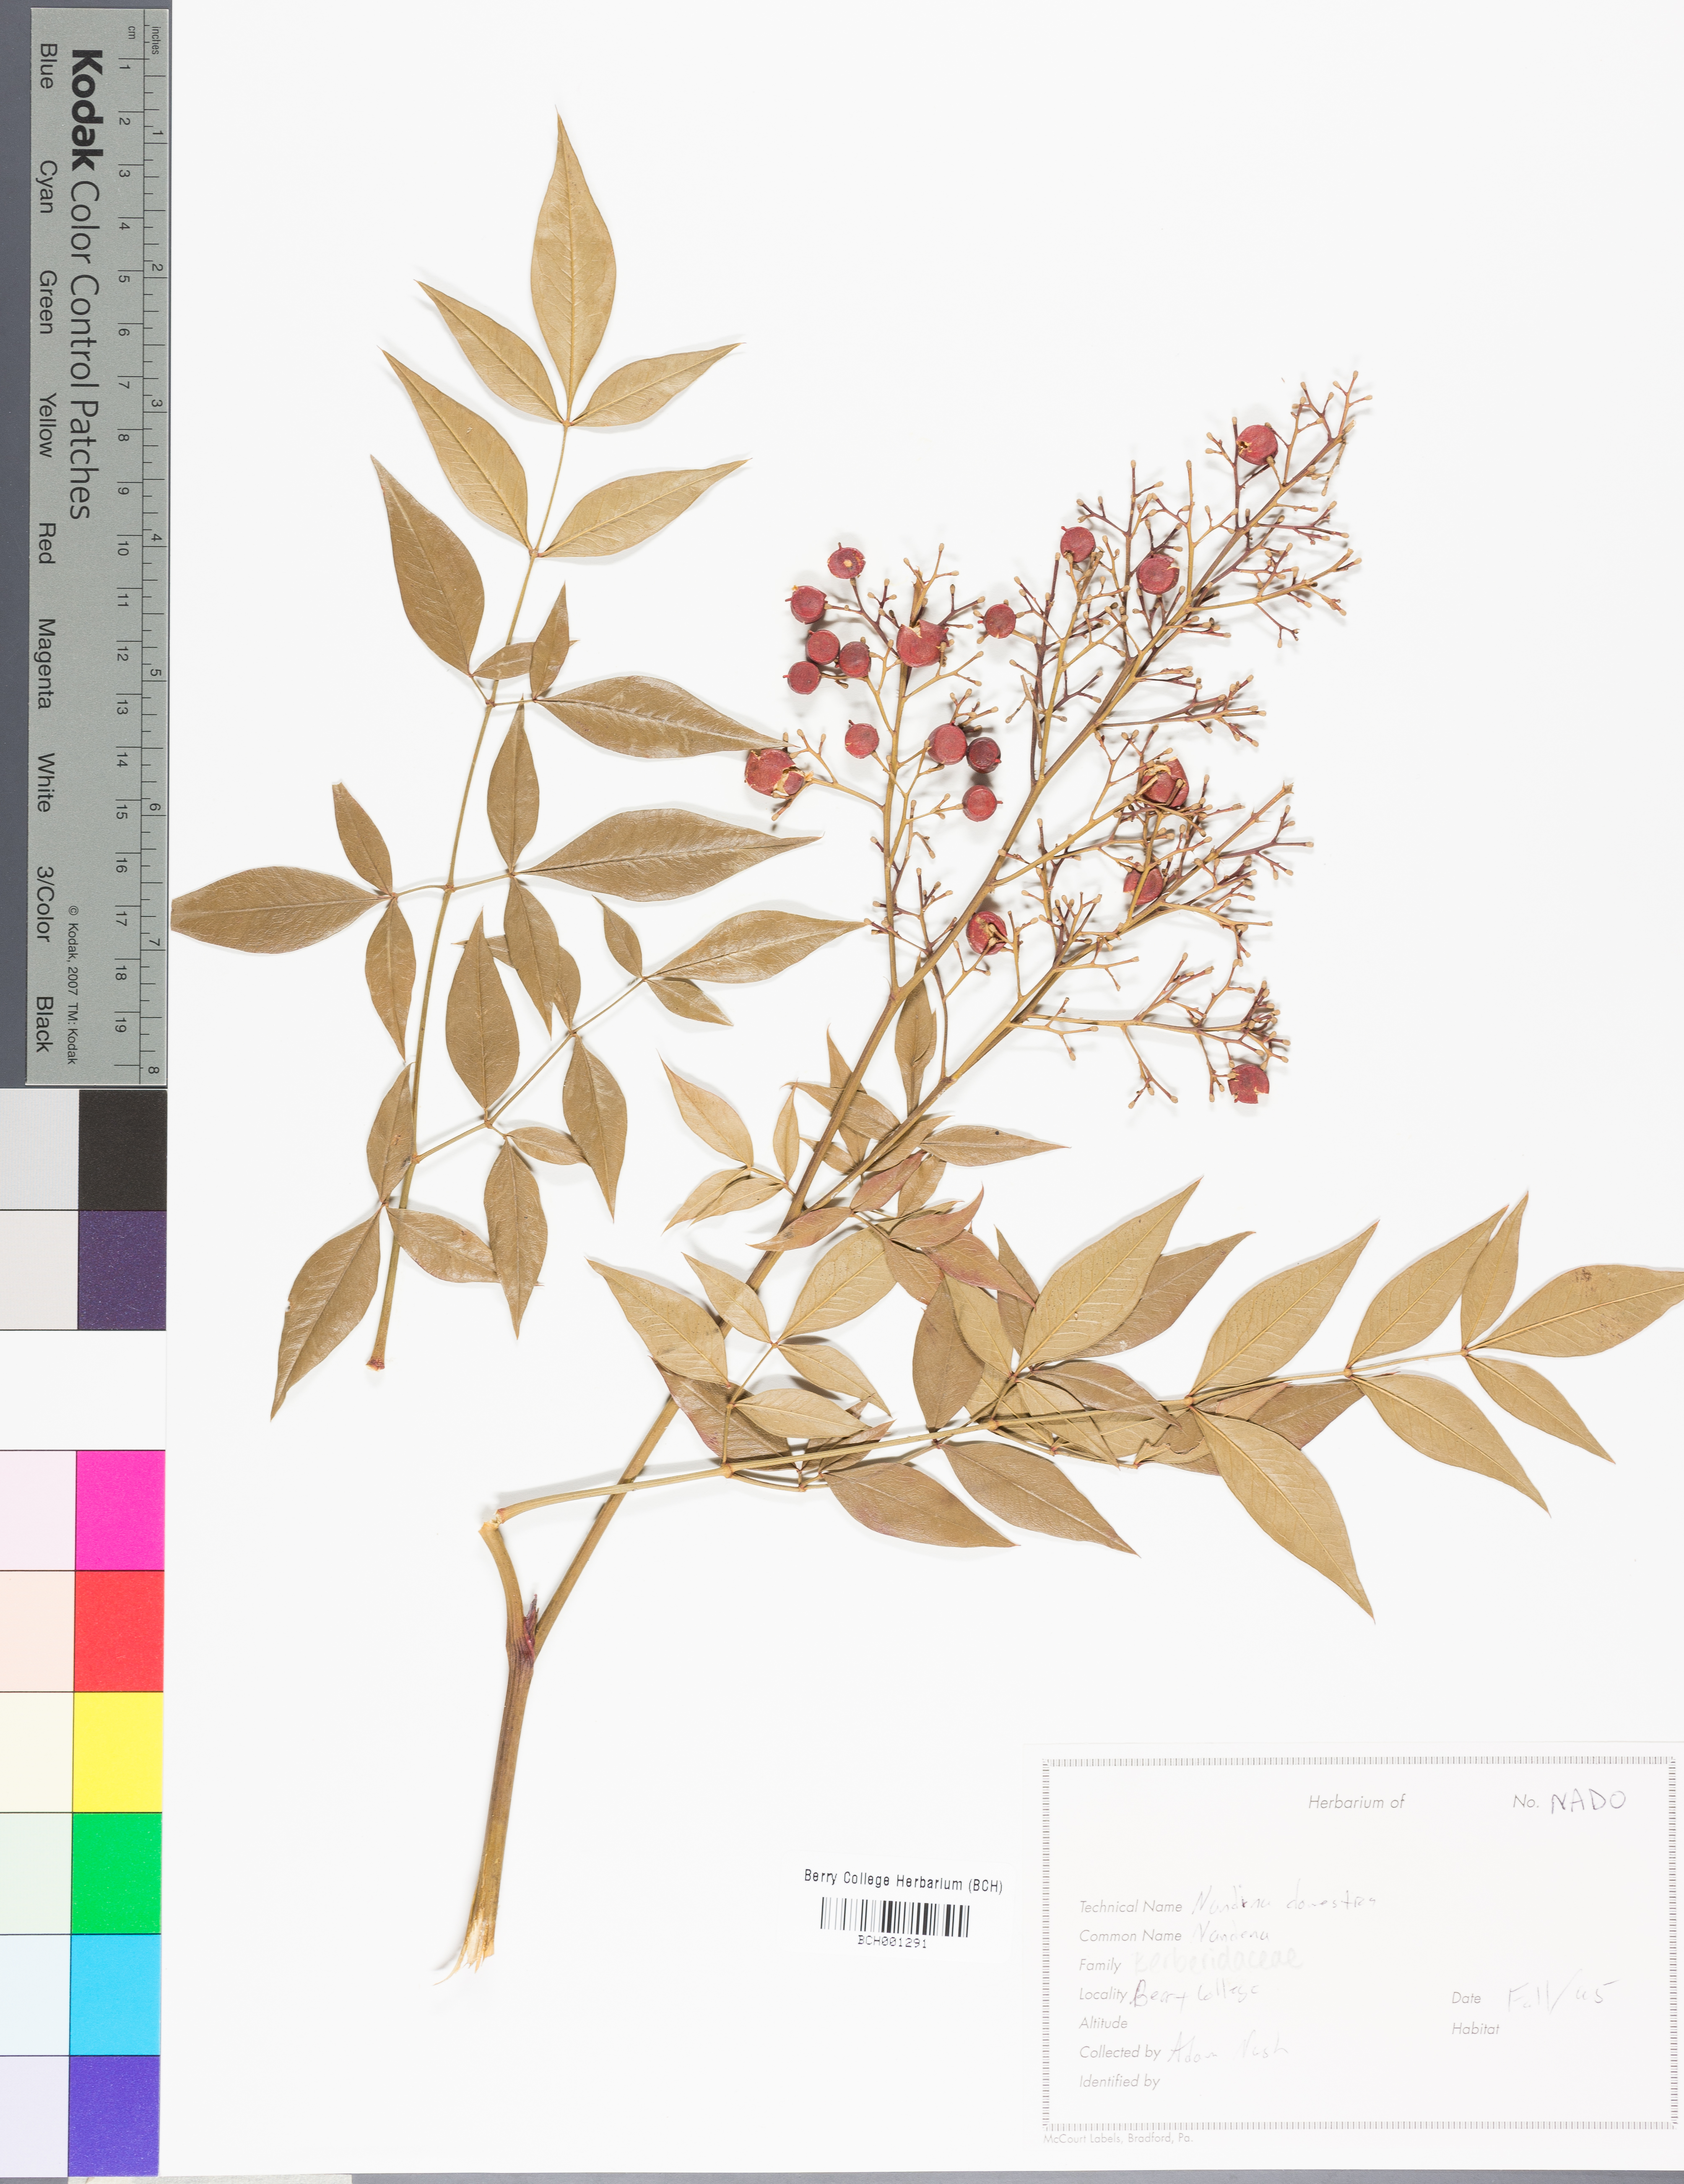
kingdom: Plantae
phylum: Tracheophyta
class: Magnoliopsida
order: Ranunculales
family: Berberidaceae
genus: Nandina
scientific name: Nandina domestica
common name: Sacred bamboo
